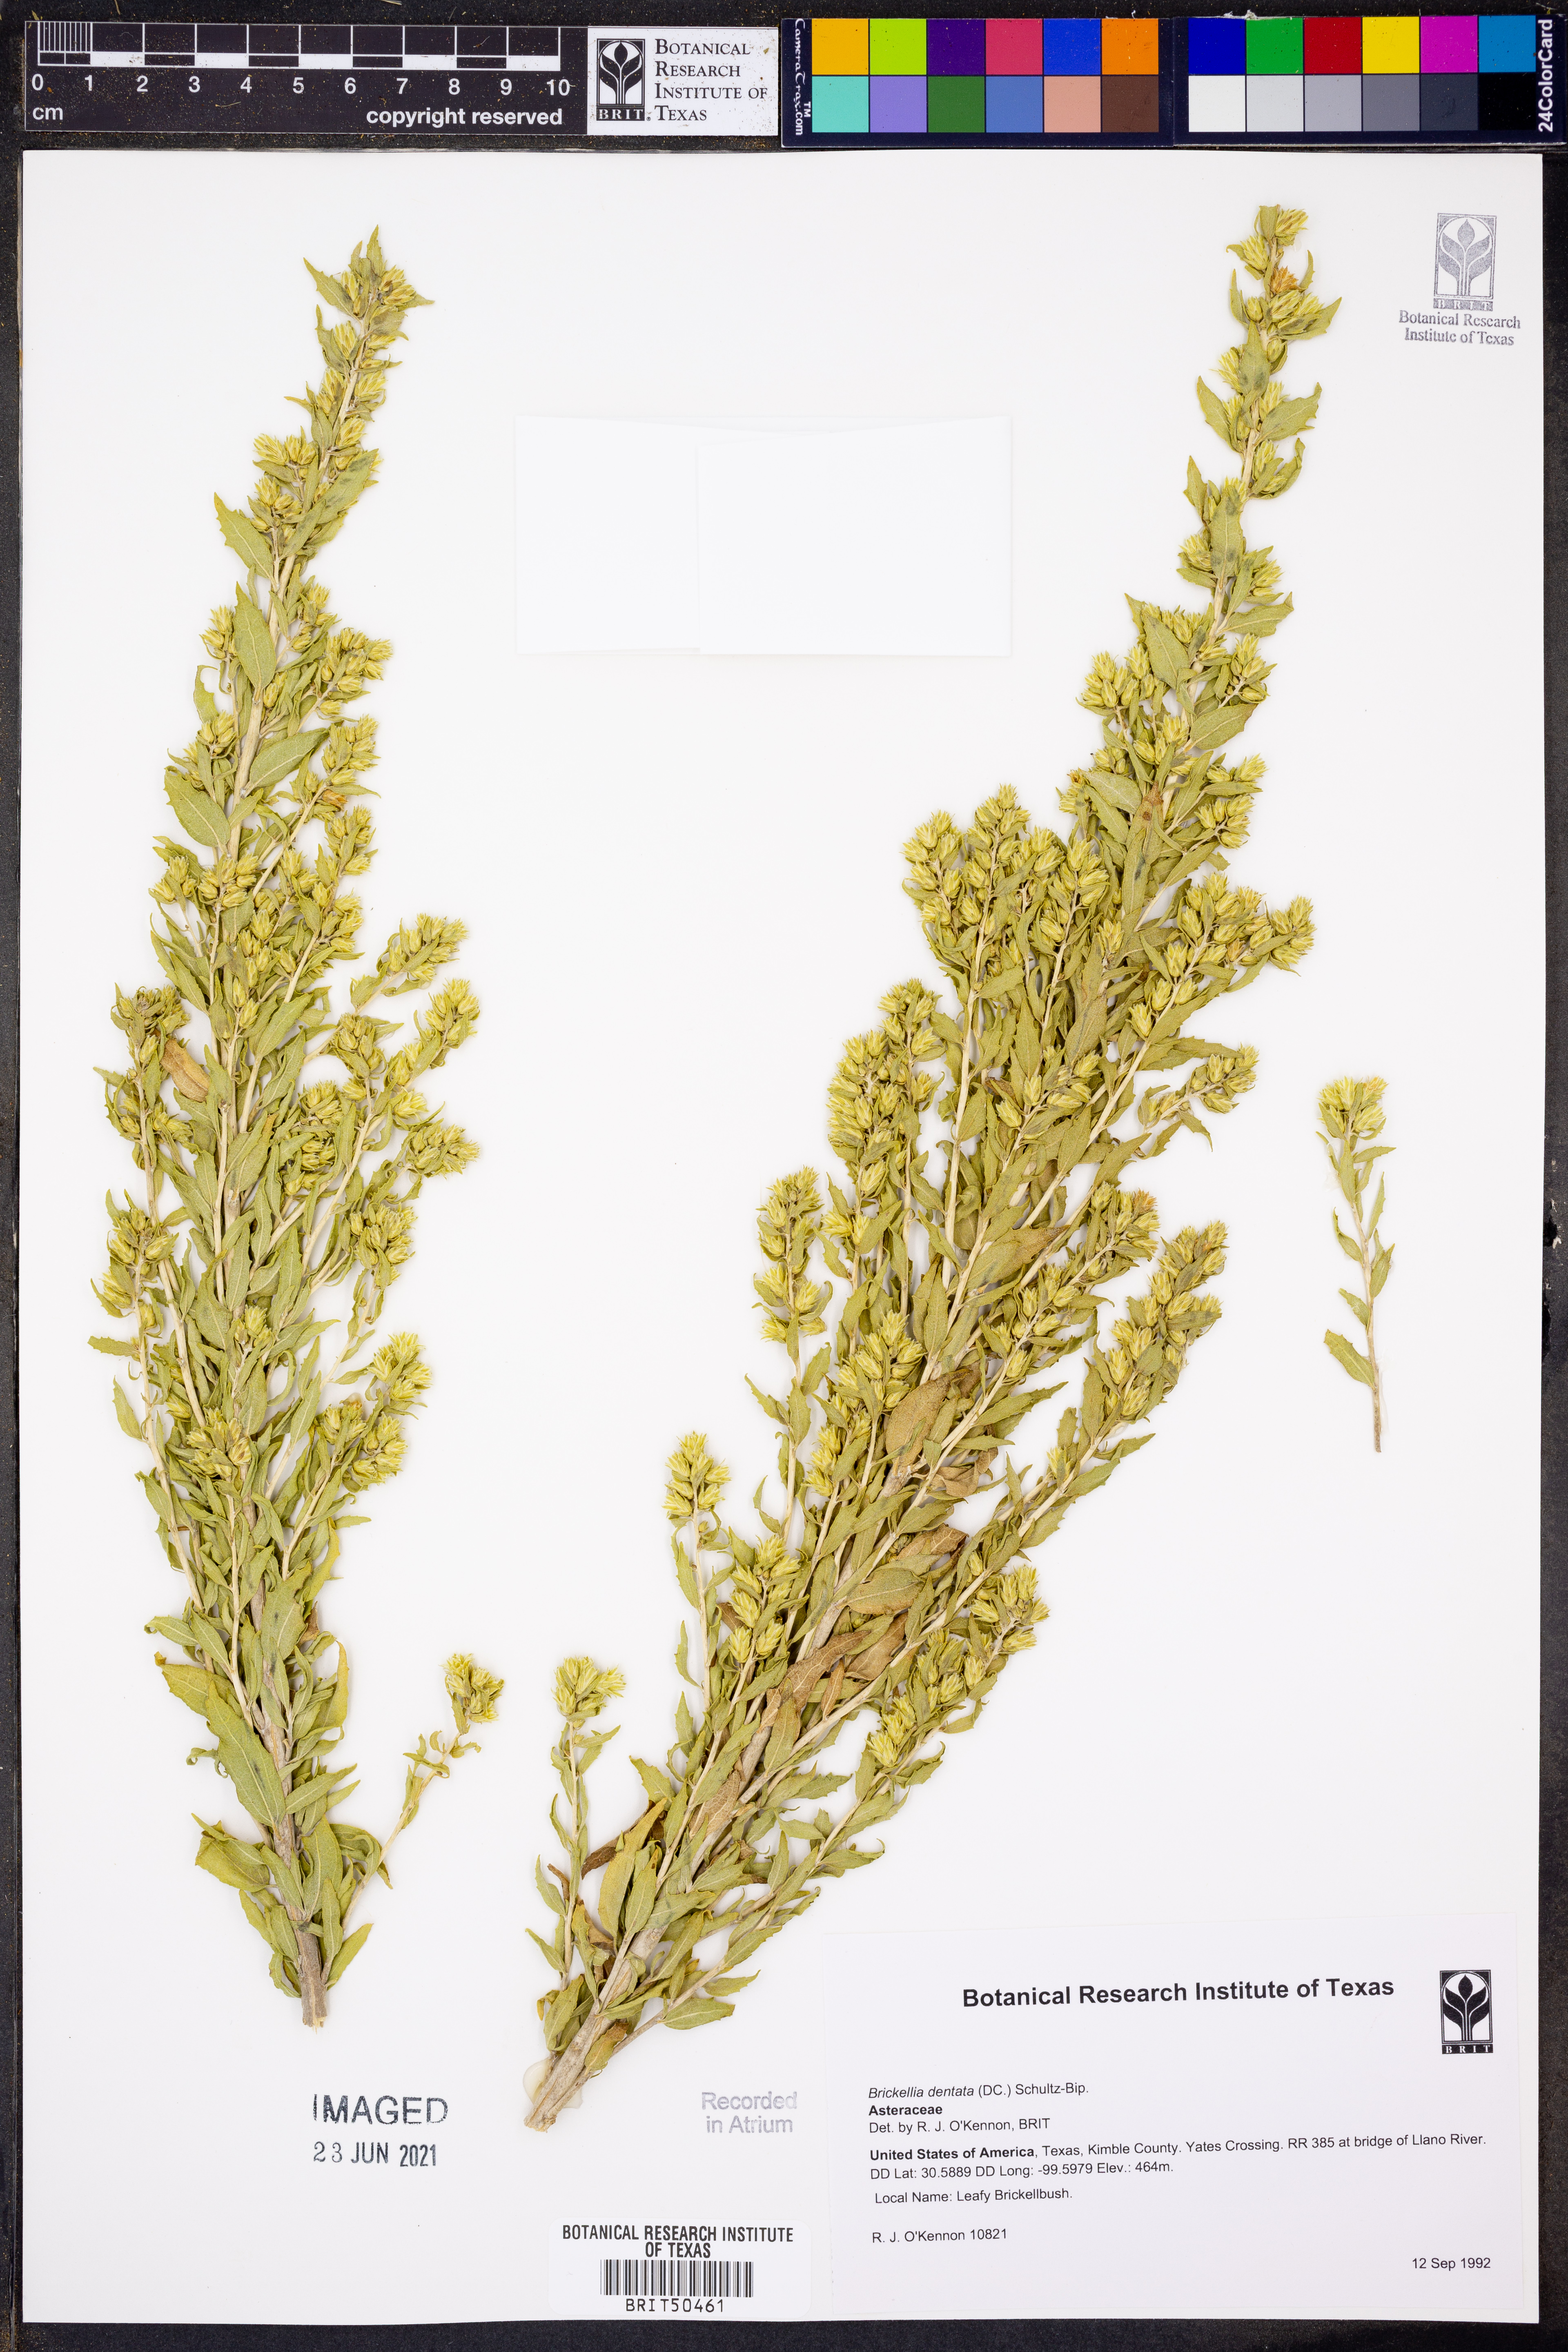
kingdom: Plantae
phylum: Tracheophyta
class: Magnoliopsida
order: Asterales
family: Asteraceae
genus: Brickellia
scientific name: Brickellia dentata
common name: Leafy brickellbush
